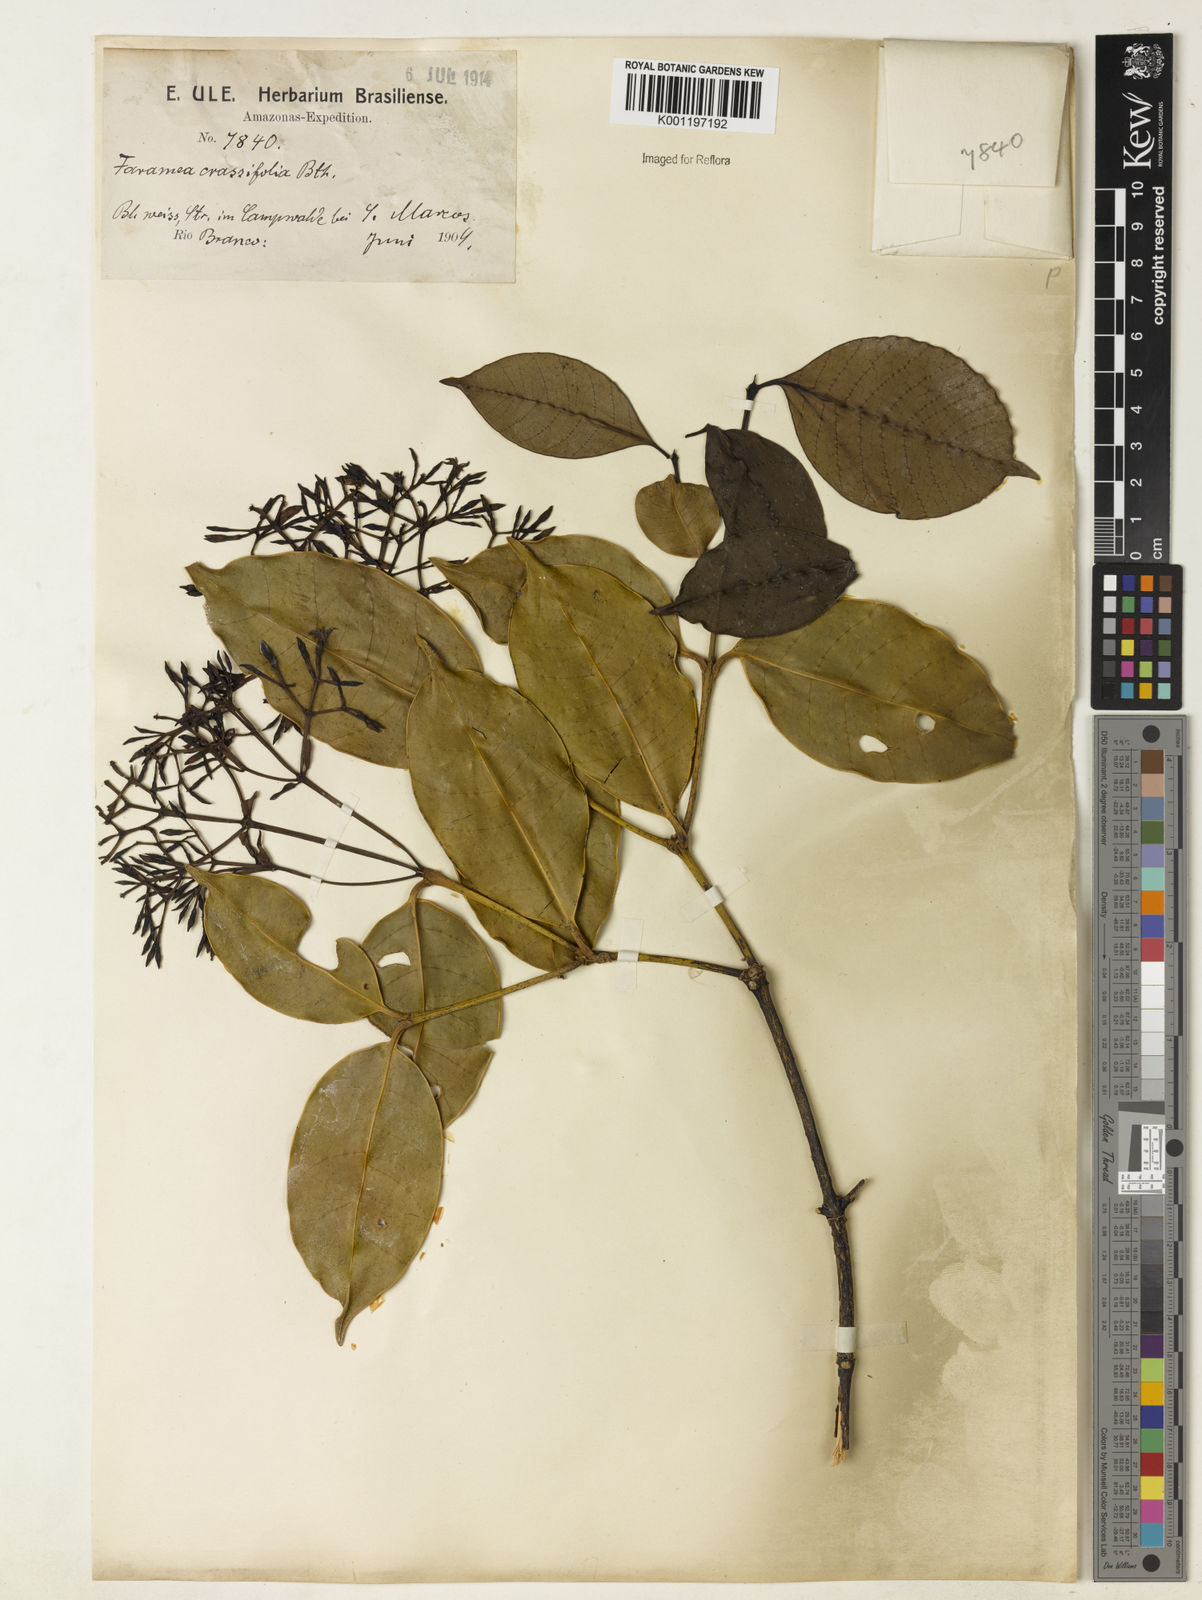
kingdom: Plantae
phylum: Tracheophyta
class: Magnoliopsida
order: Gentianales
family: Rubiaceae
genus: Faramea
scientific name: Faramea crassifolia
